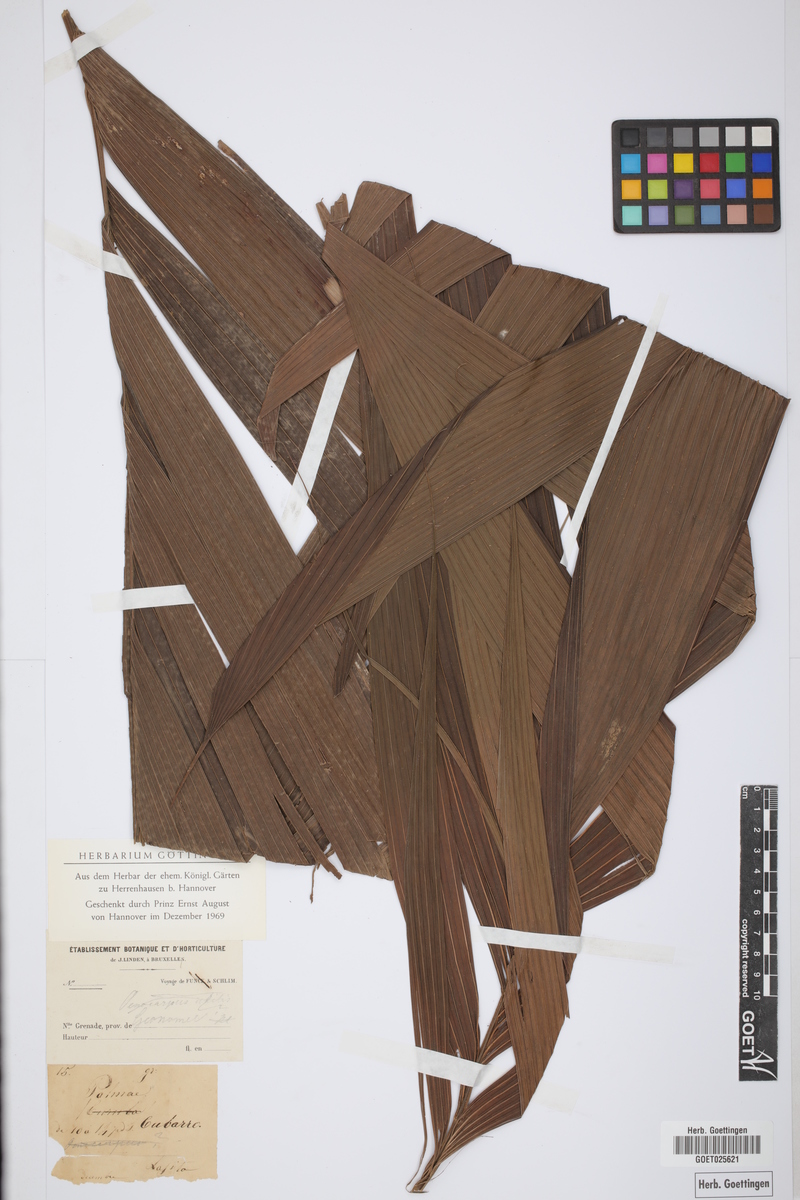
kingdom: Plantae
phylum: Tracheophyta
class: Liliopsida
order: Arecales
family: Arecaceae
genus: Geonoma
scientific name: Geonoma
